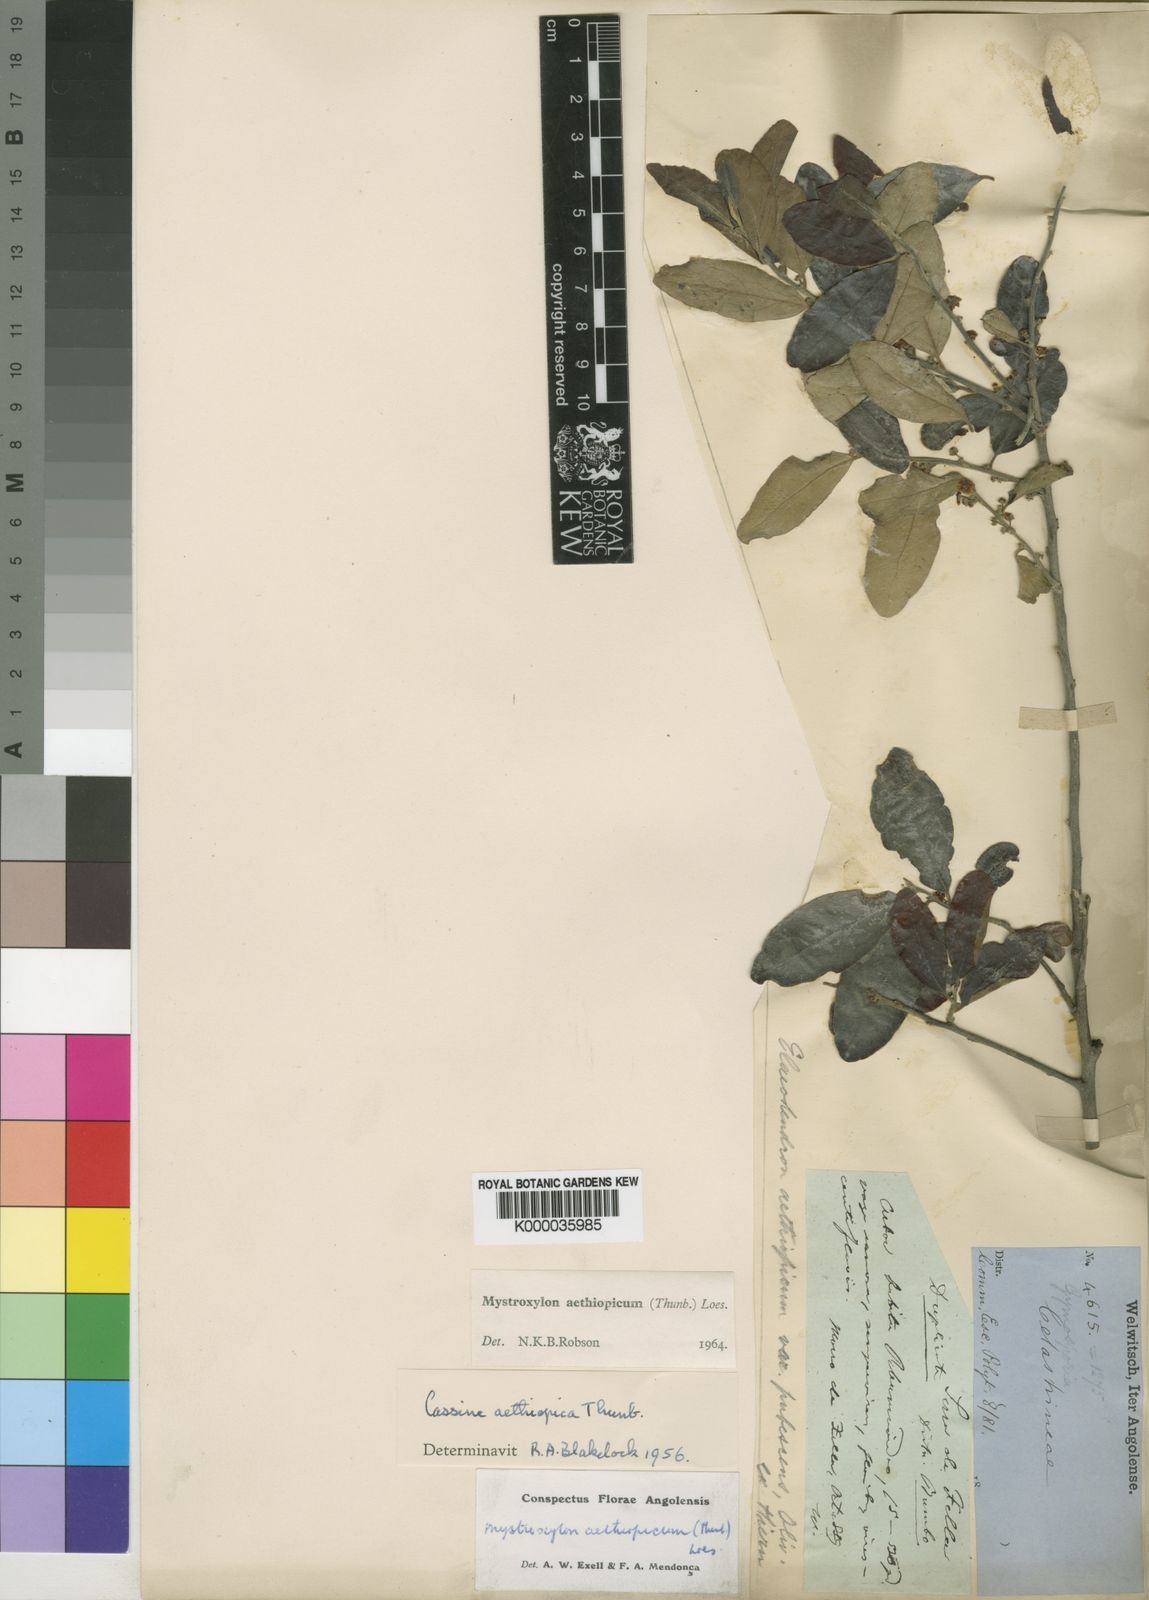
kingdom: Plantae
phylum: Tracheophyta
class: Magnoliopsida
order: Celastrales
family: Celastraceae
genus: Mystroxylon
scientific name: Mystroxylon aethiopicum
